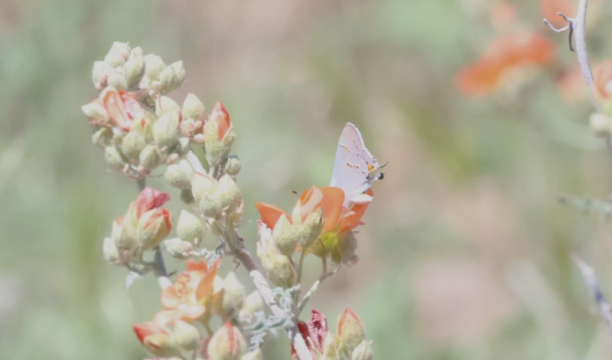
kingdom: Animalia
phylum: Arthropoda
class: Insecta
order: Lepidoptera
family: Lycaenidae
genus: Strymon
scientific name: Strymon melinus
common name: Gray Hairstreak
